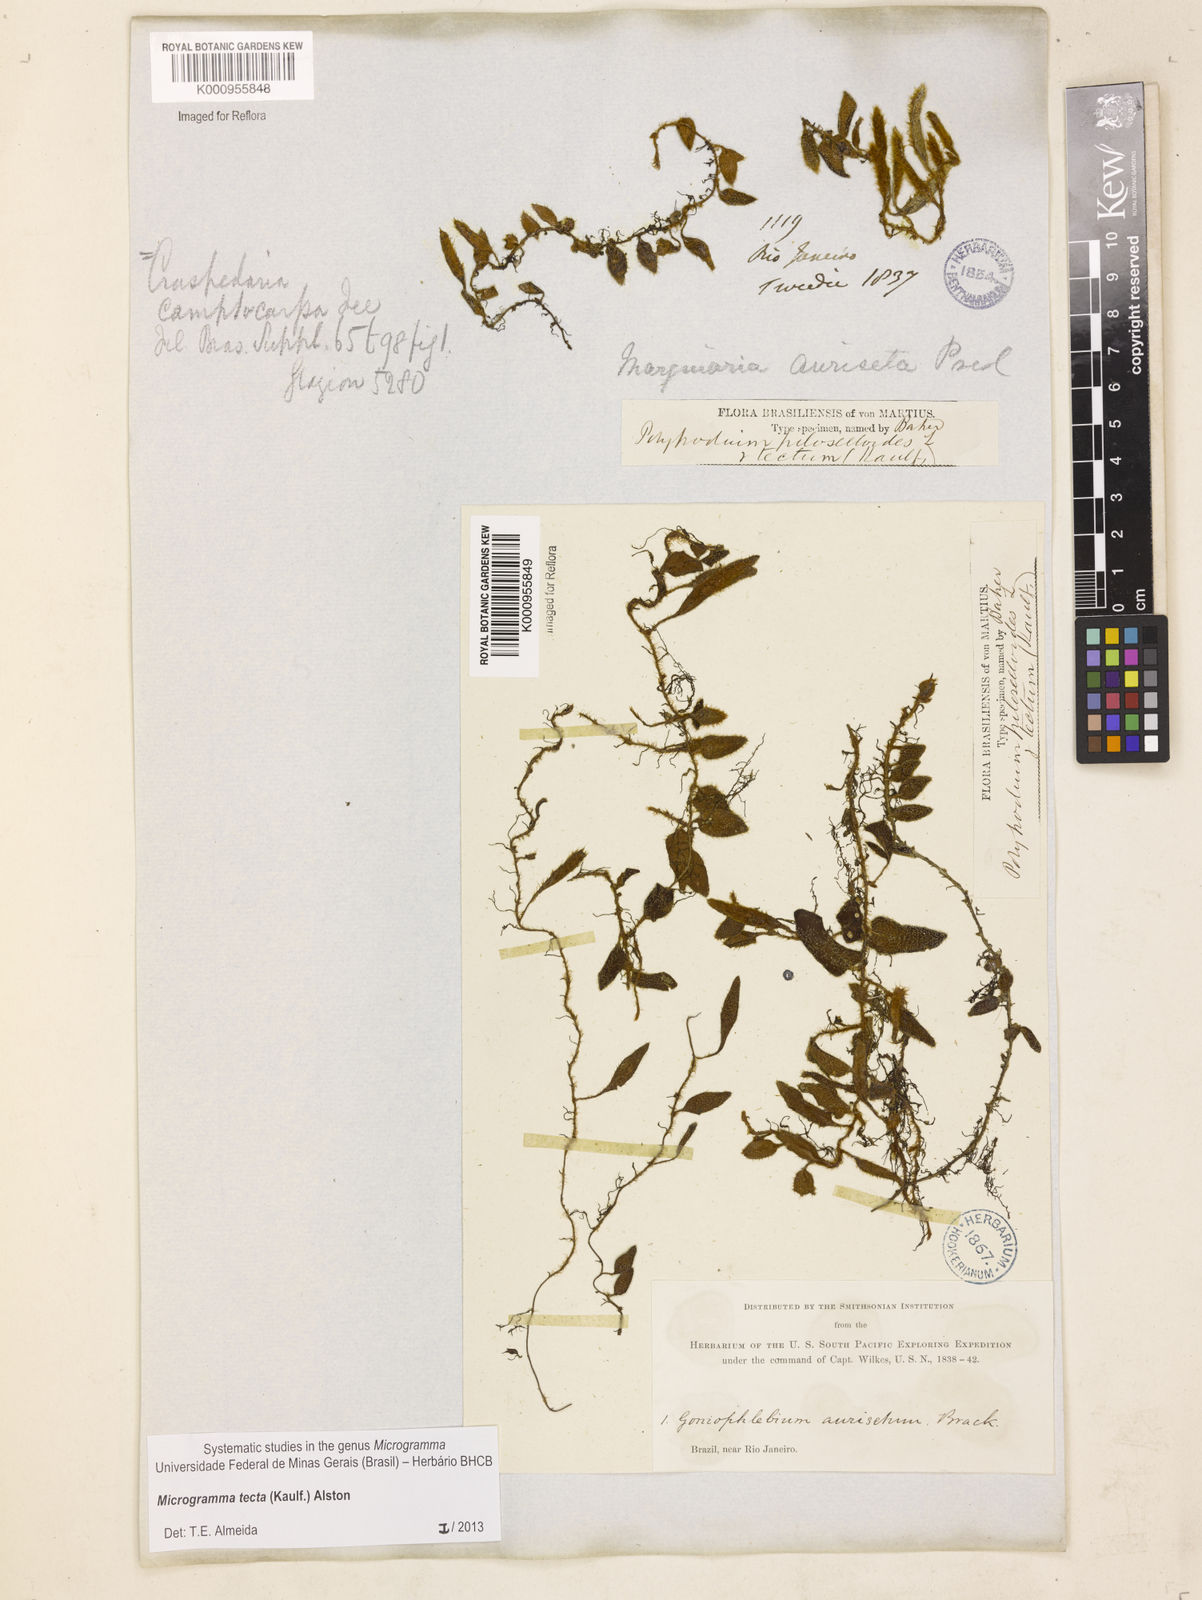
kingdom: Plantae
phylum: Tracheophyta
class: Polypodiopsida
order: Polypodiales
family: Polypodiaceae
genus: Microgramma
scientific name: Microgramma tecta
